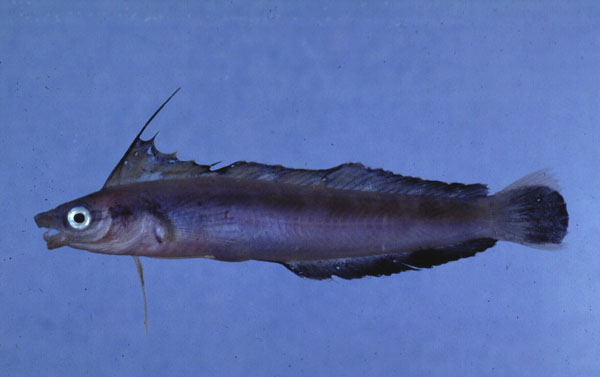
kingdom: Animalia
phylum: Chordata
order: Perciformes
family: Blenniidae
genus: Aspidontus
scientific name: Aspidontus tractus
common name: Mimic blenny
